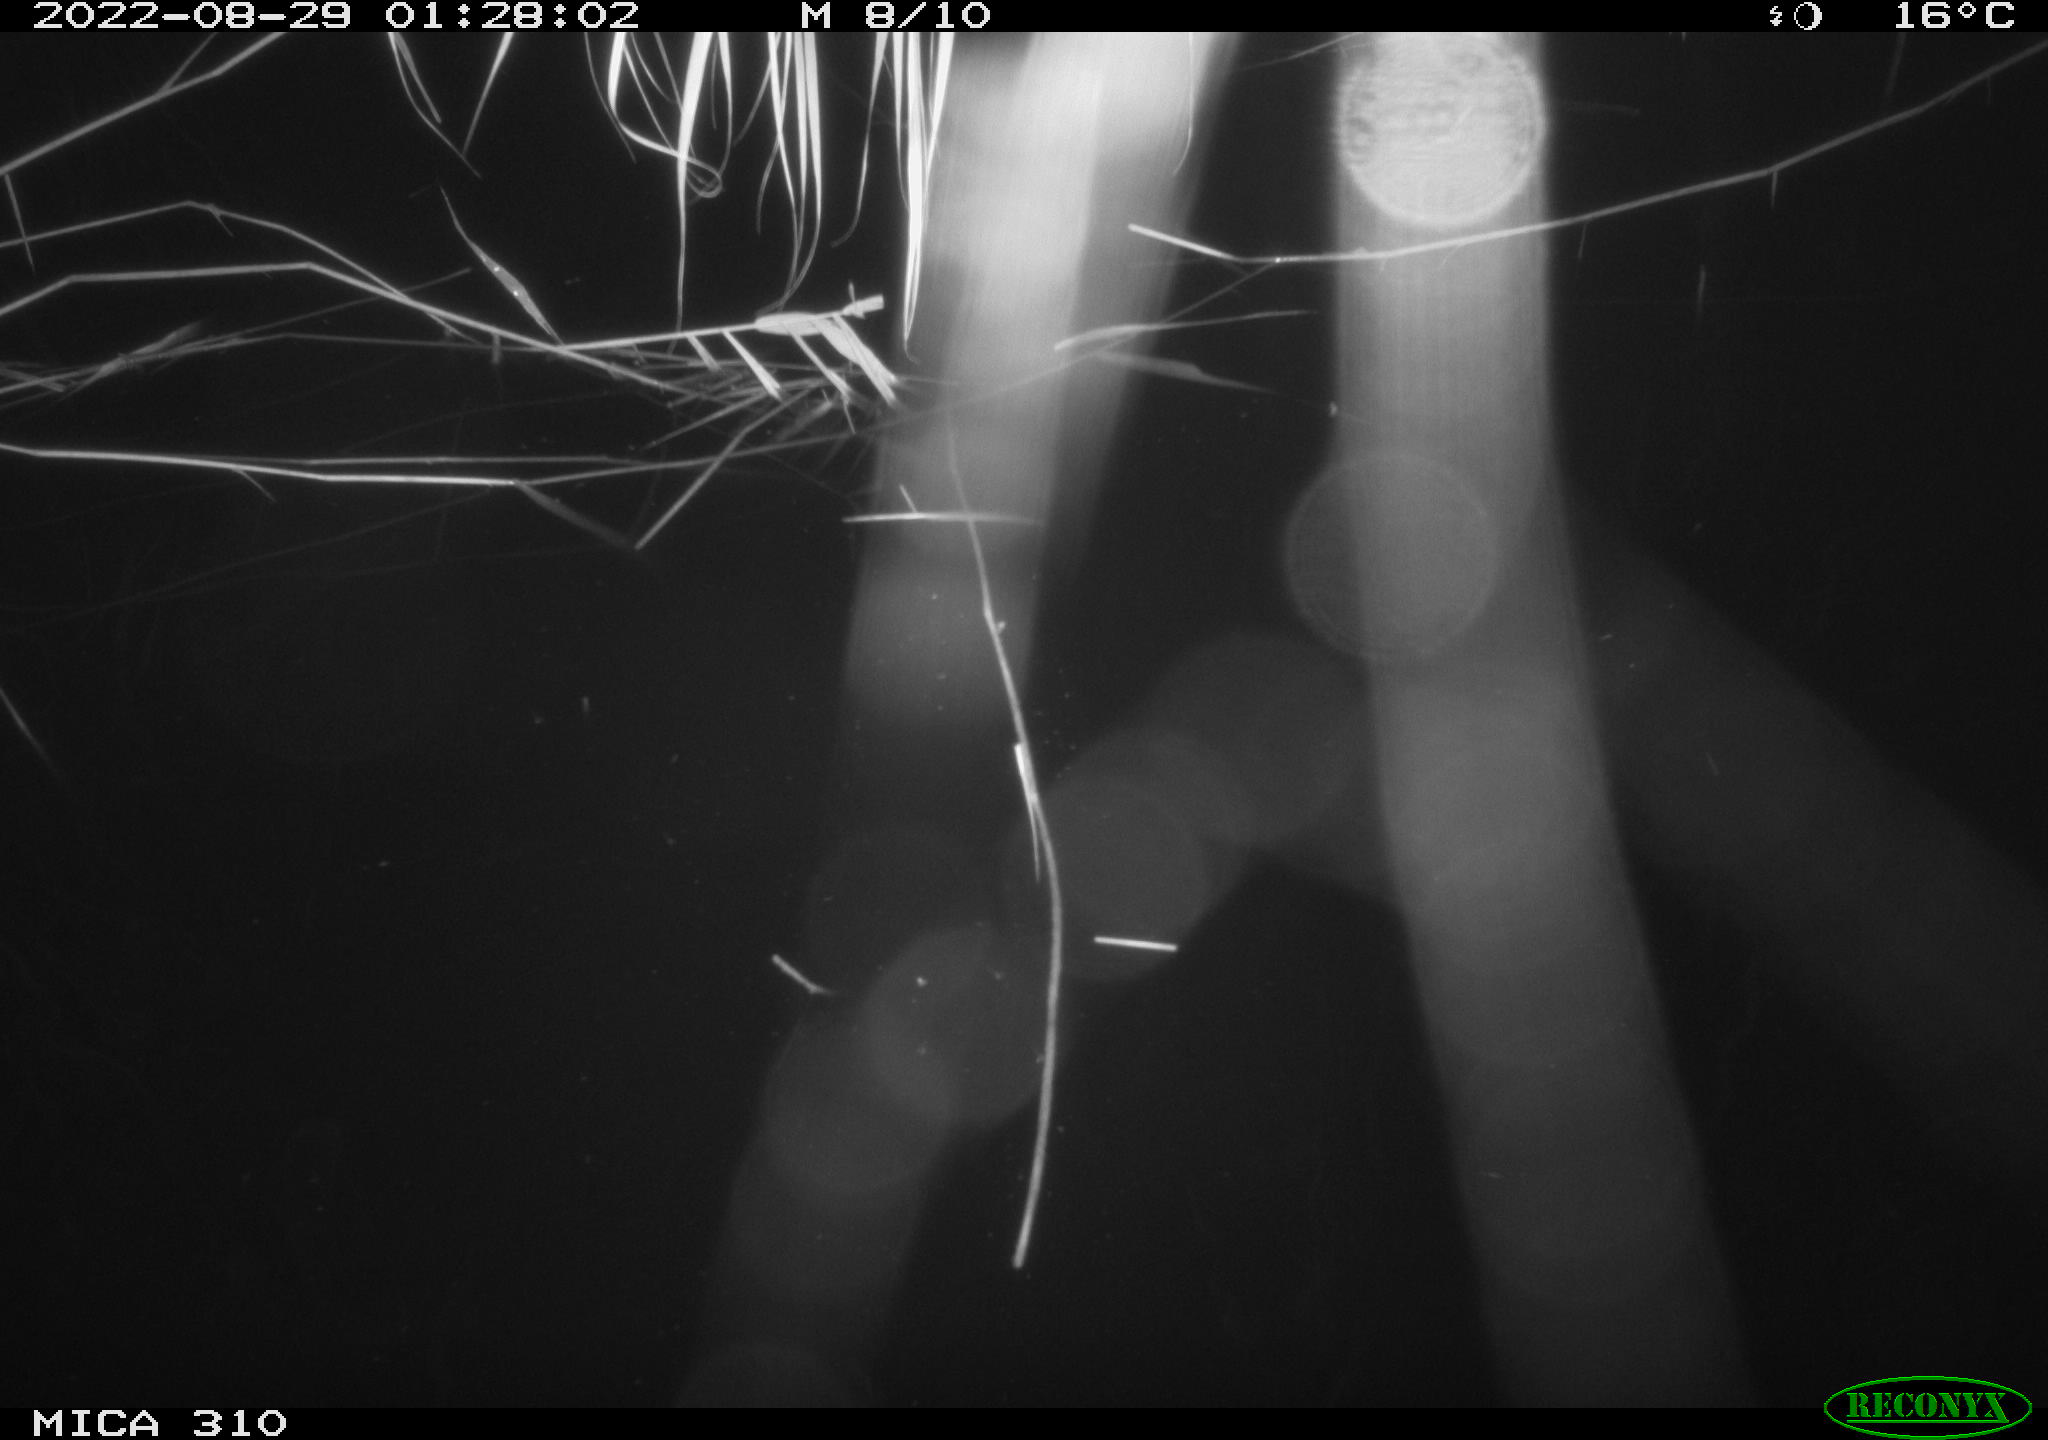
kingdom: Animalia
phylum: Chordata
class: Aves
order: Anseriformes
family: Anatidae
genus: Anas
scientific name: Anas platyrhynchos
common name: Mallard
